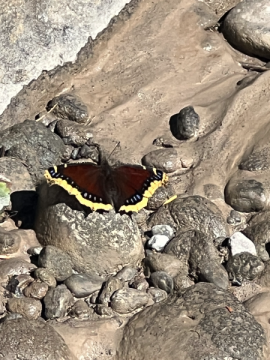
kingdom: Animalia
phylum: Arthropoda
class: Insecta
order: Lepidoptera
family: Nymphalidae
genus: Nymphalis
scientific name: Nymphalis antiopa
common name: Mourning Cloak
